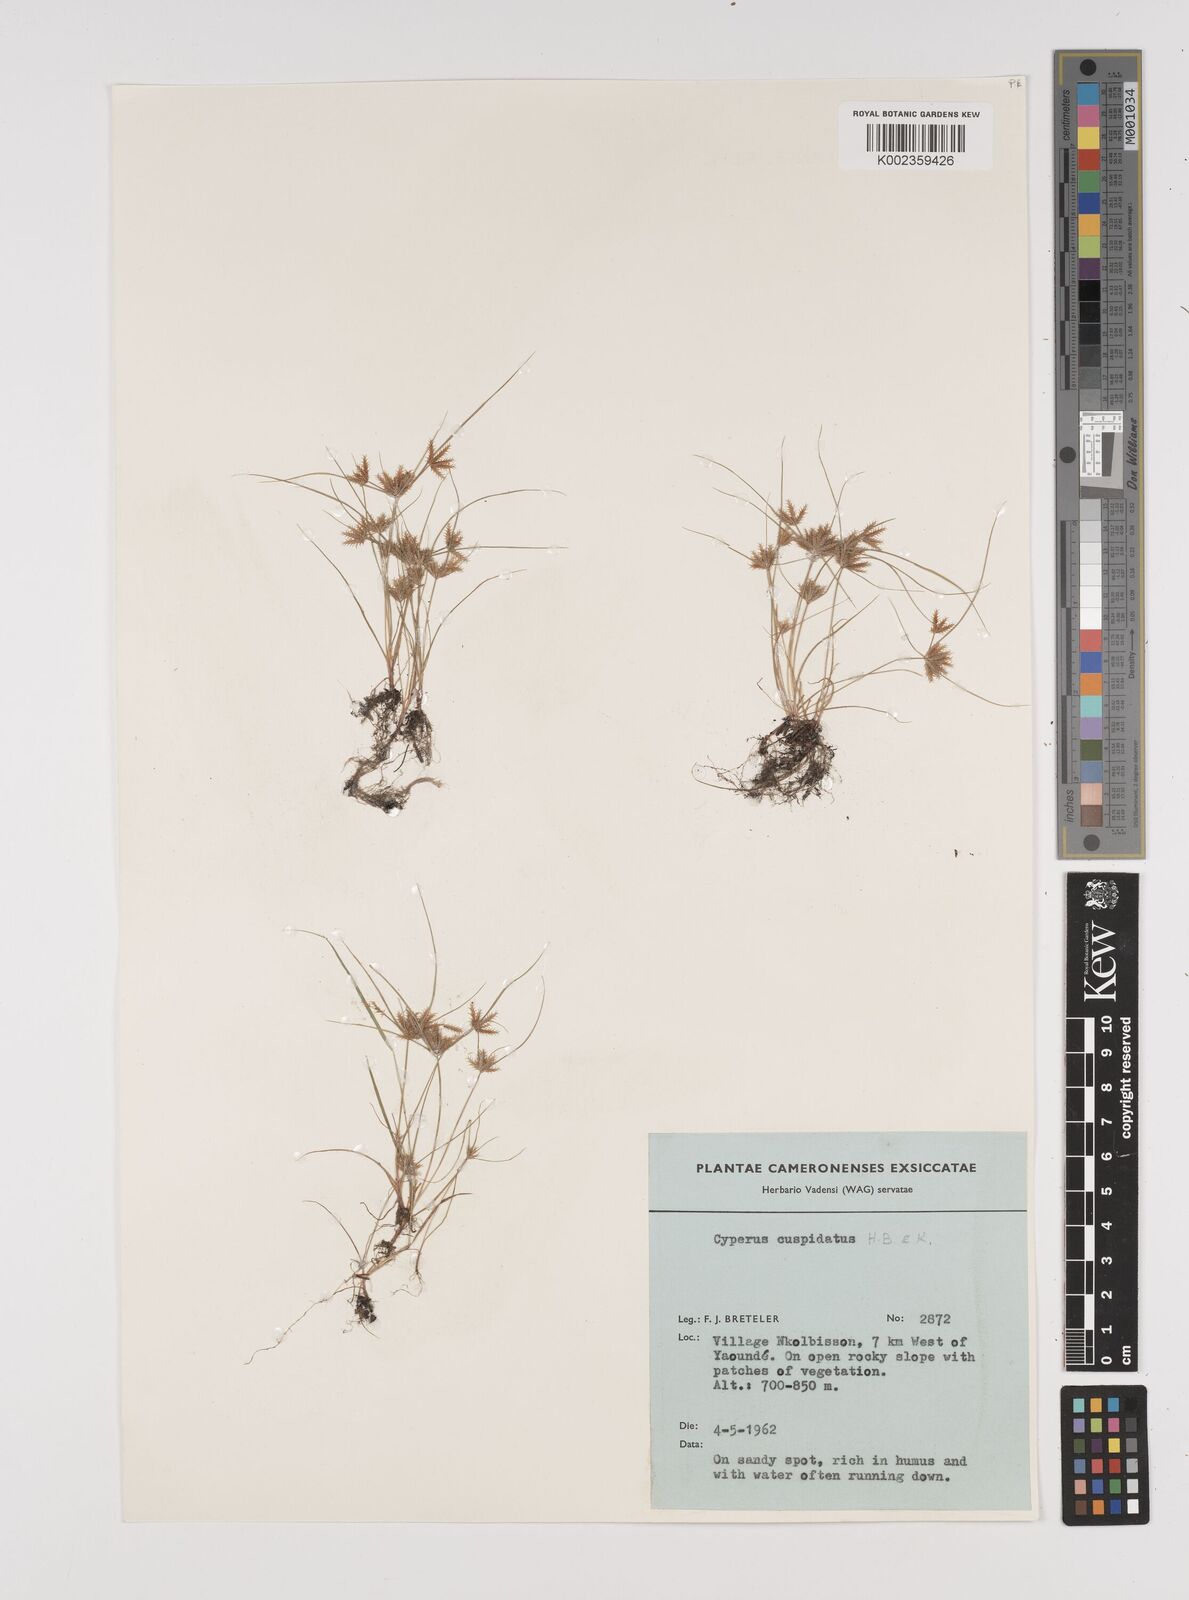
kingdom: Plantae
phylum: Tracheophyta
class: Liliopsida
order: Poales
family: Cyperaceae
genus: Cyperus
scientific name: Cyperus cuspidatus
